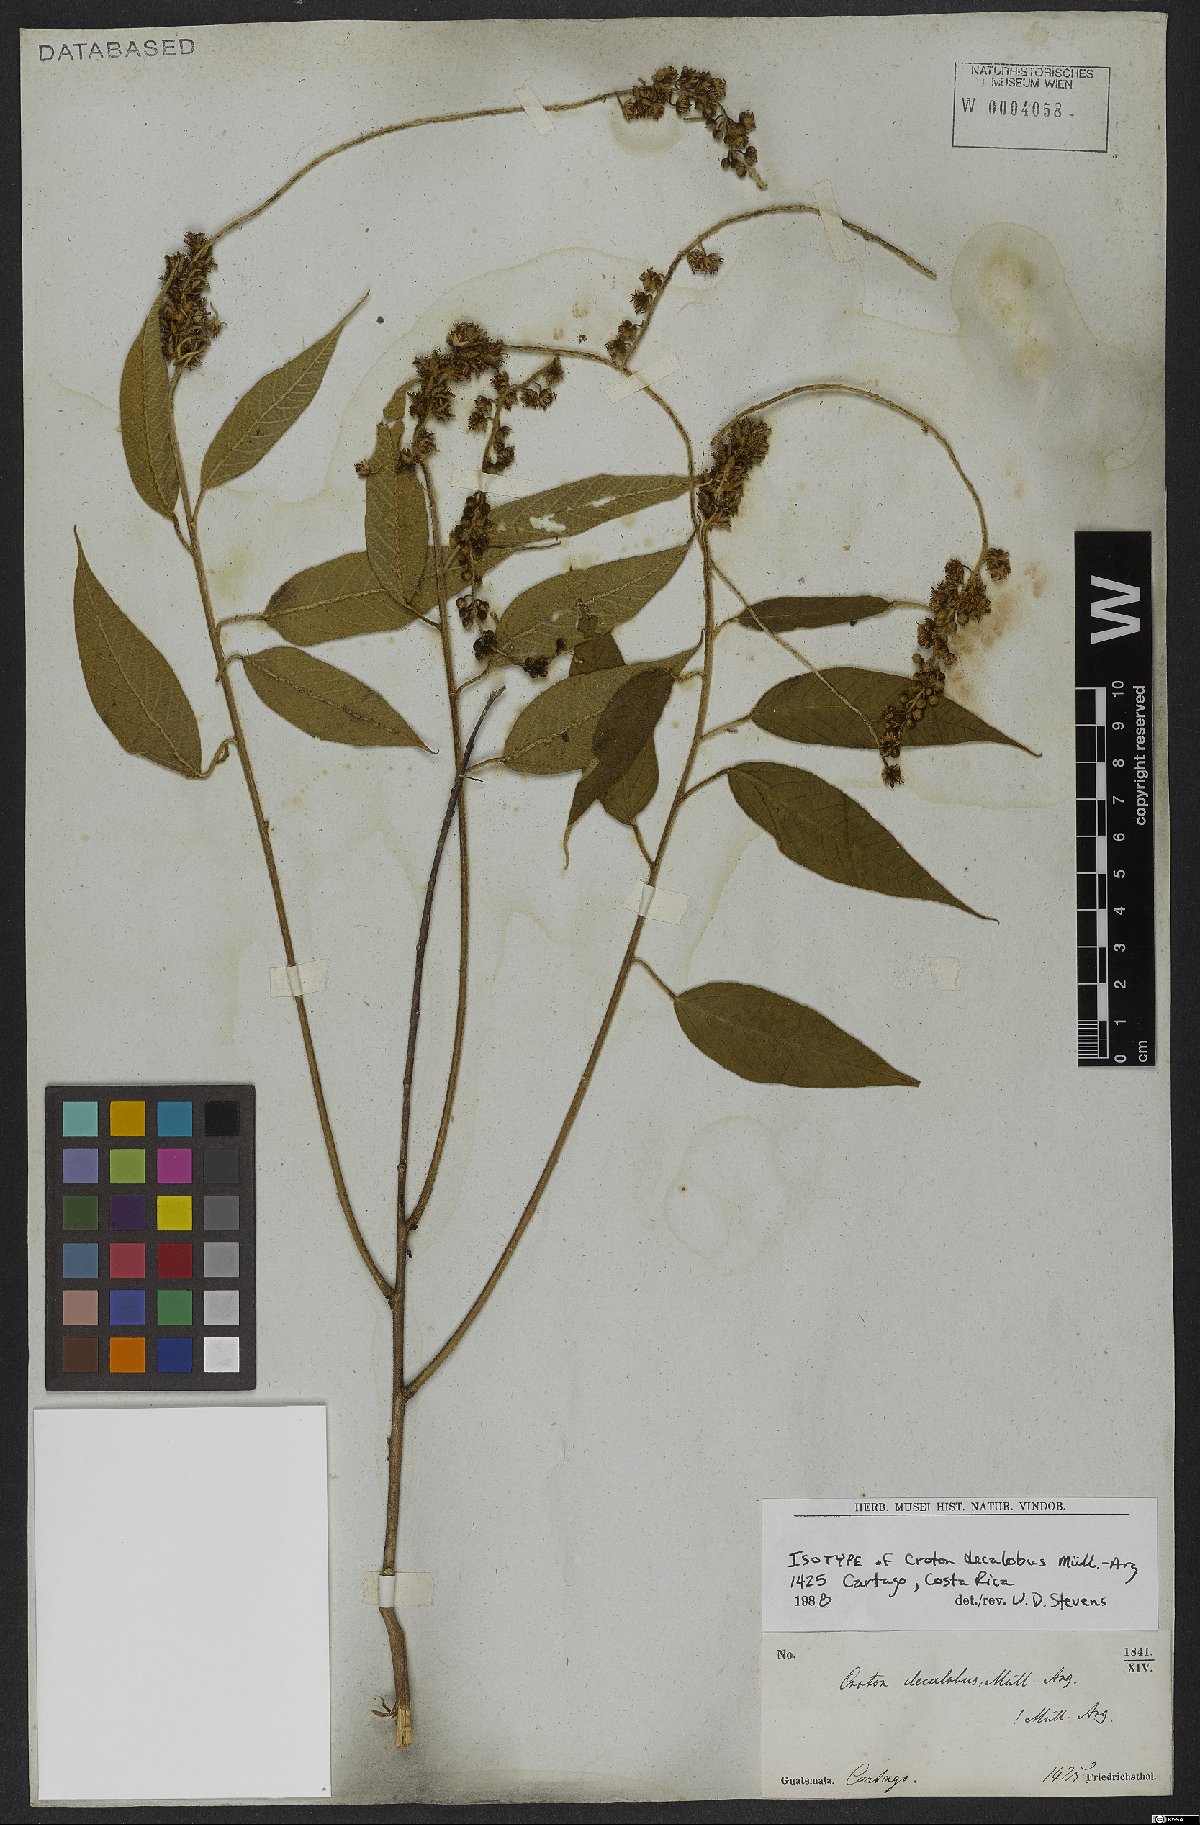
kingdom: Plantae
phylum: Tracheophyta
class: Magnoliopsida
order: Malpighiales
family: Euphorbiaceae
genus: Croton
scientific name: Croton decalobus
